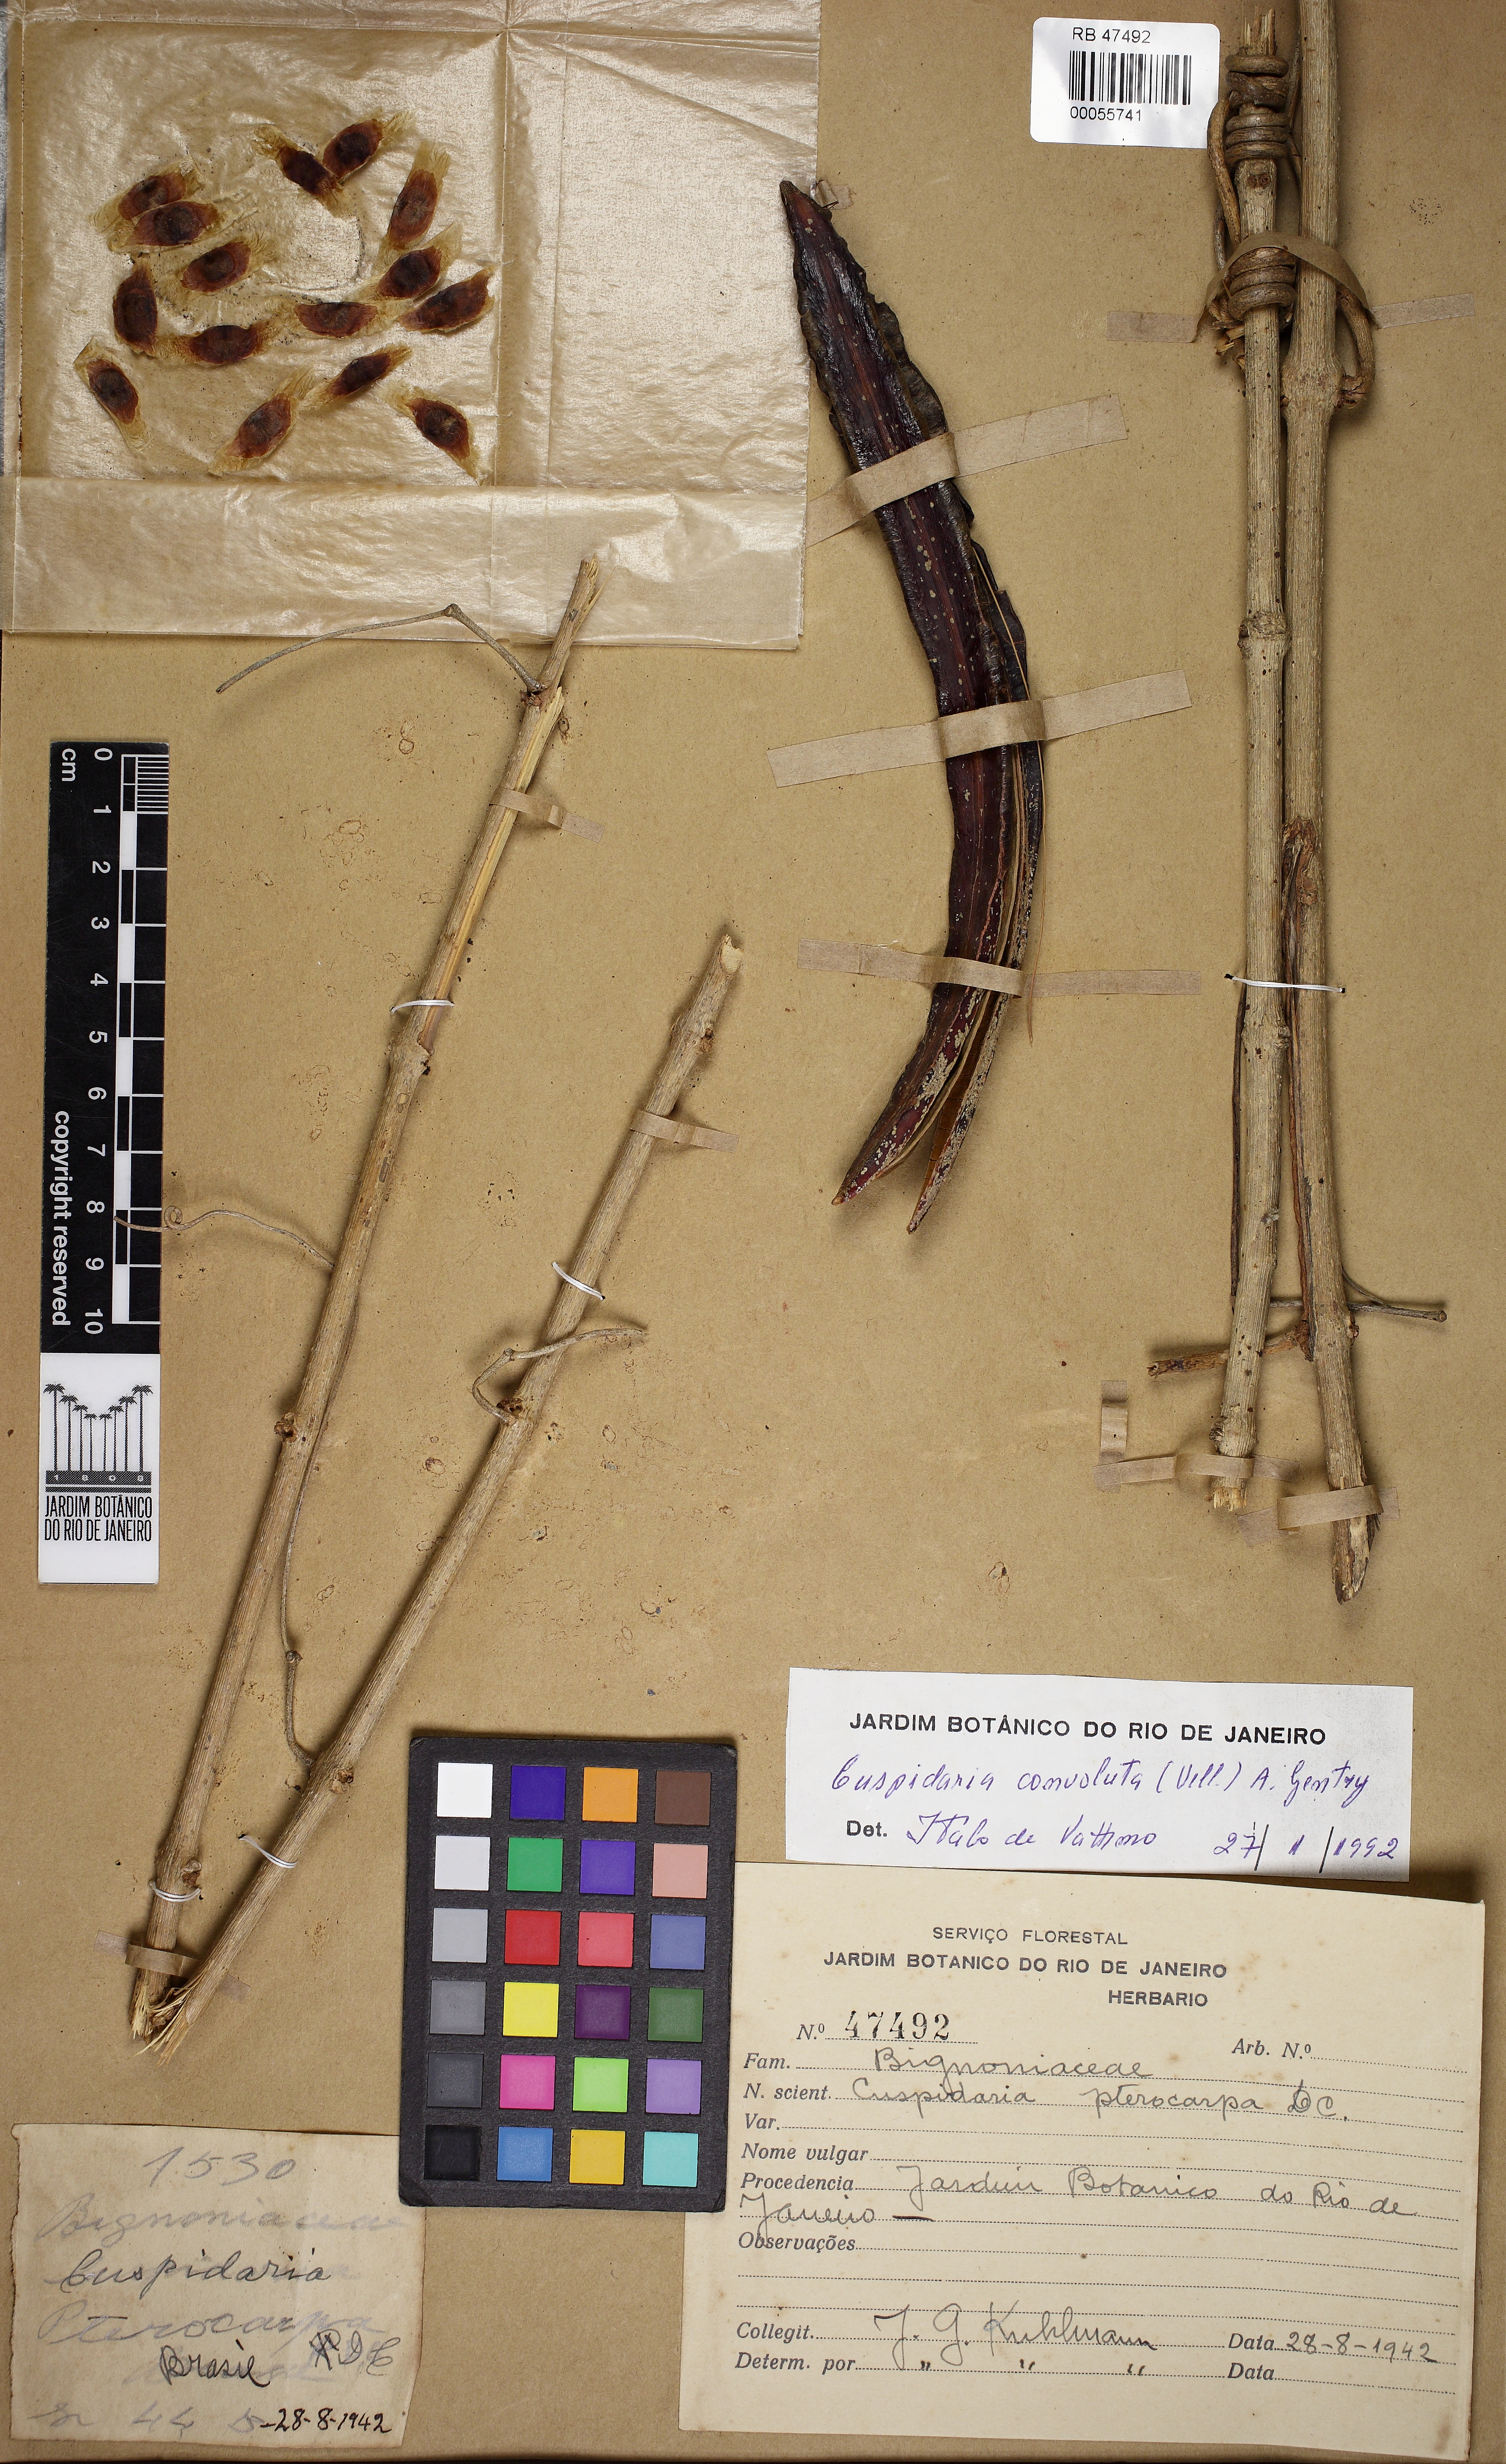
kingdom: Plantae
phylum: Tracheophyta
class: Magnoliopsida
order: Lamiales
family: Bignoniaceae
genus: Cuspidaria
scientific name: Cuspidaria convoluta
